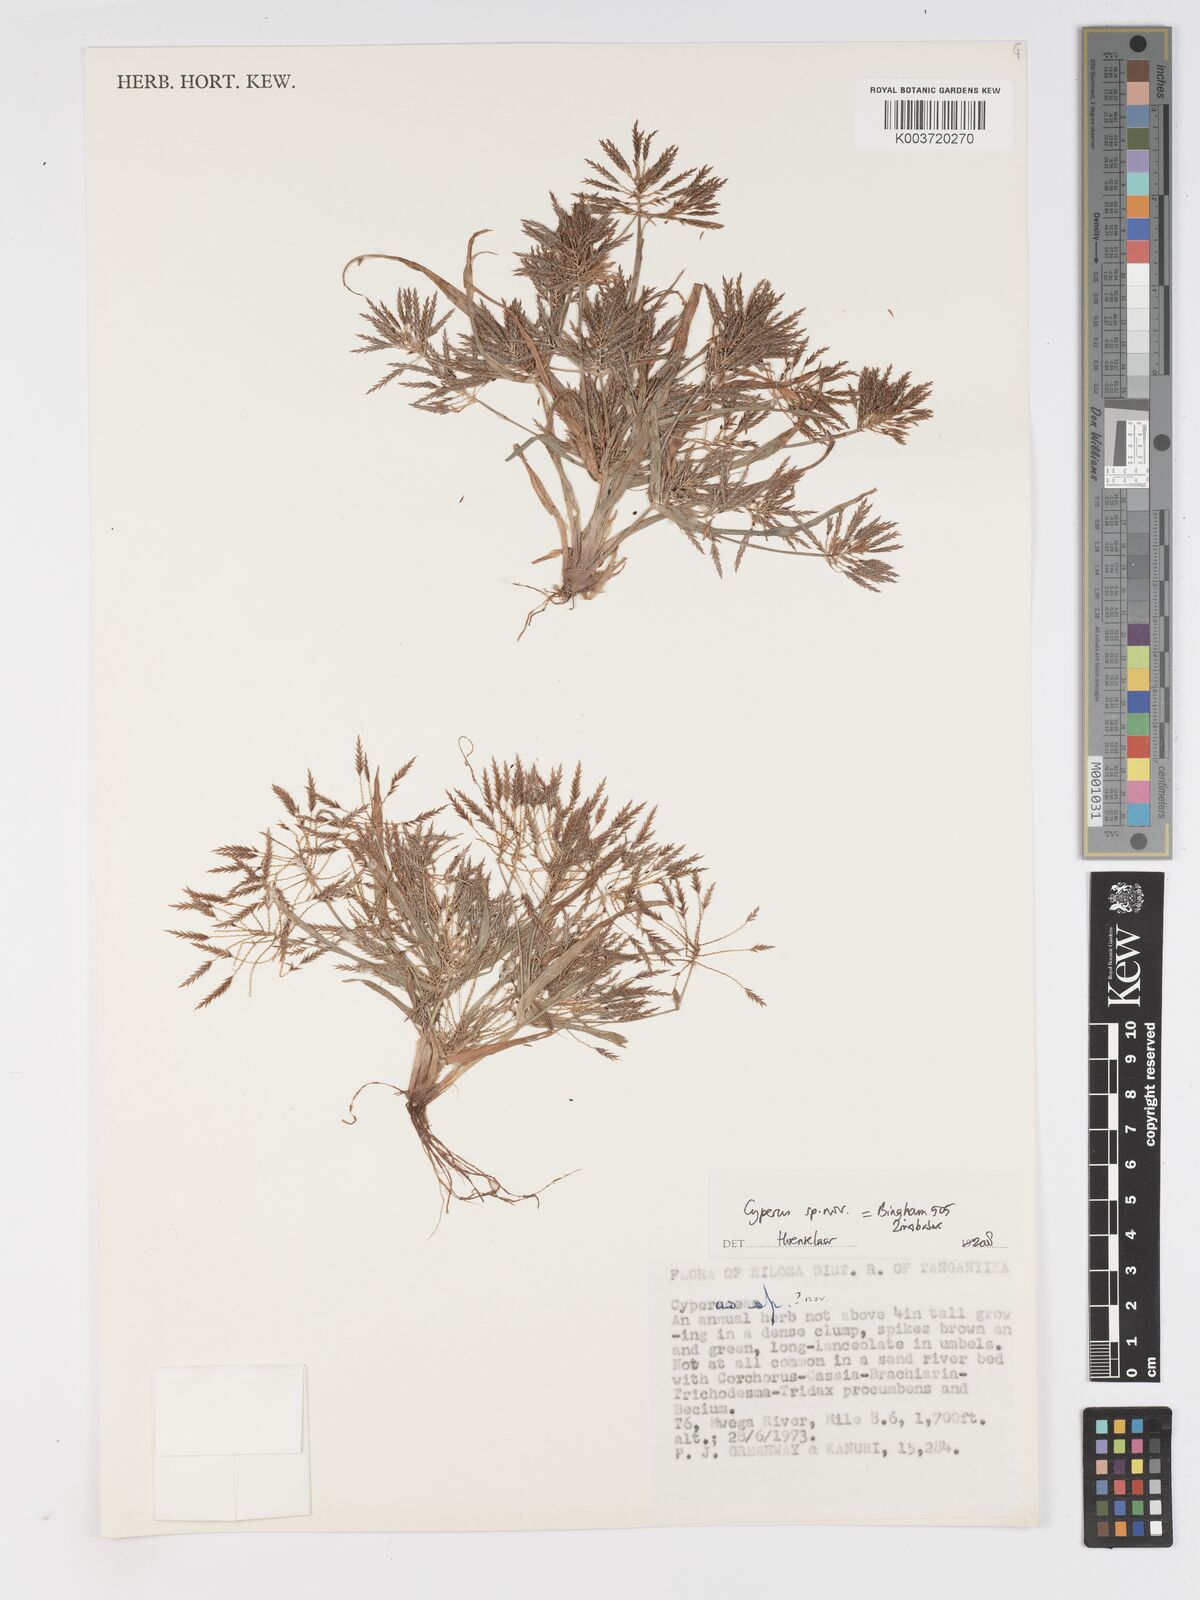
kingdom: Plantae
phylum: Tracheophyta
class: Liliopsida
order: Poales
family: Cyperaceae
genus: Cyperus
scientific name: Cyperus
